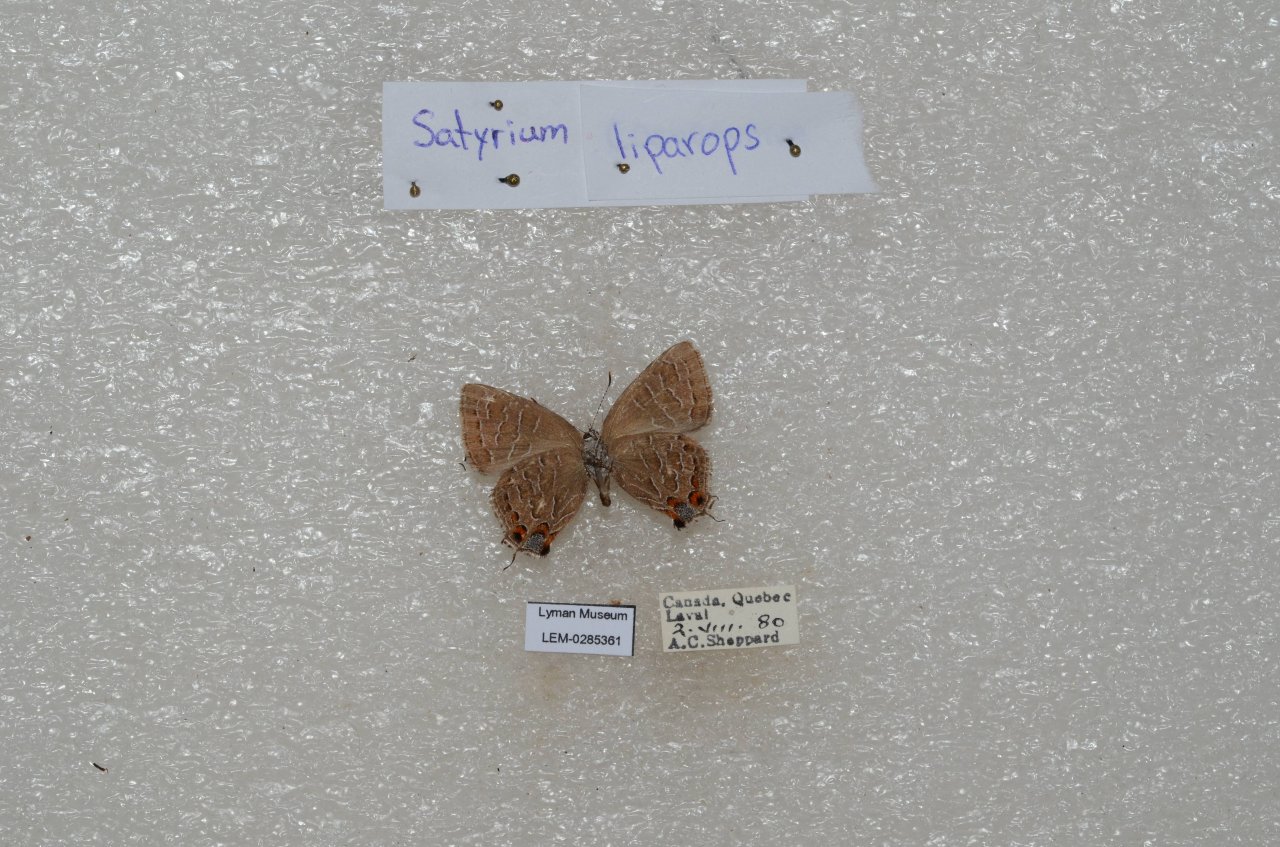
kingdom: Animalia
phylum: Arthropoda
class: Insecta
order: Lepidoptera
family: Lycaenidae
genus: Satyrium
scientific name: Satyrium liparops
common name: Striped Hairstreak
